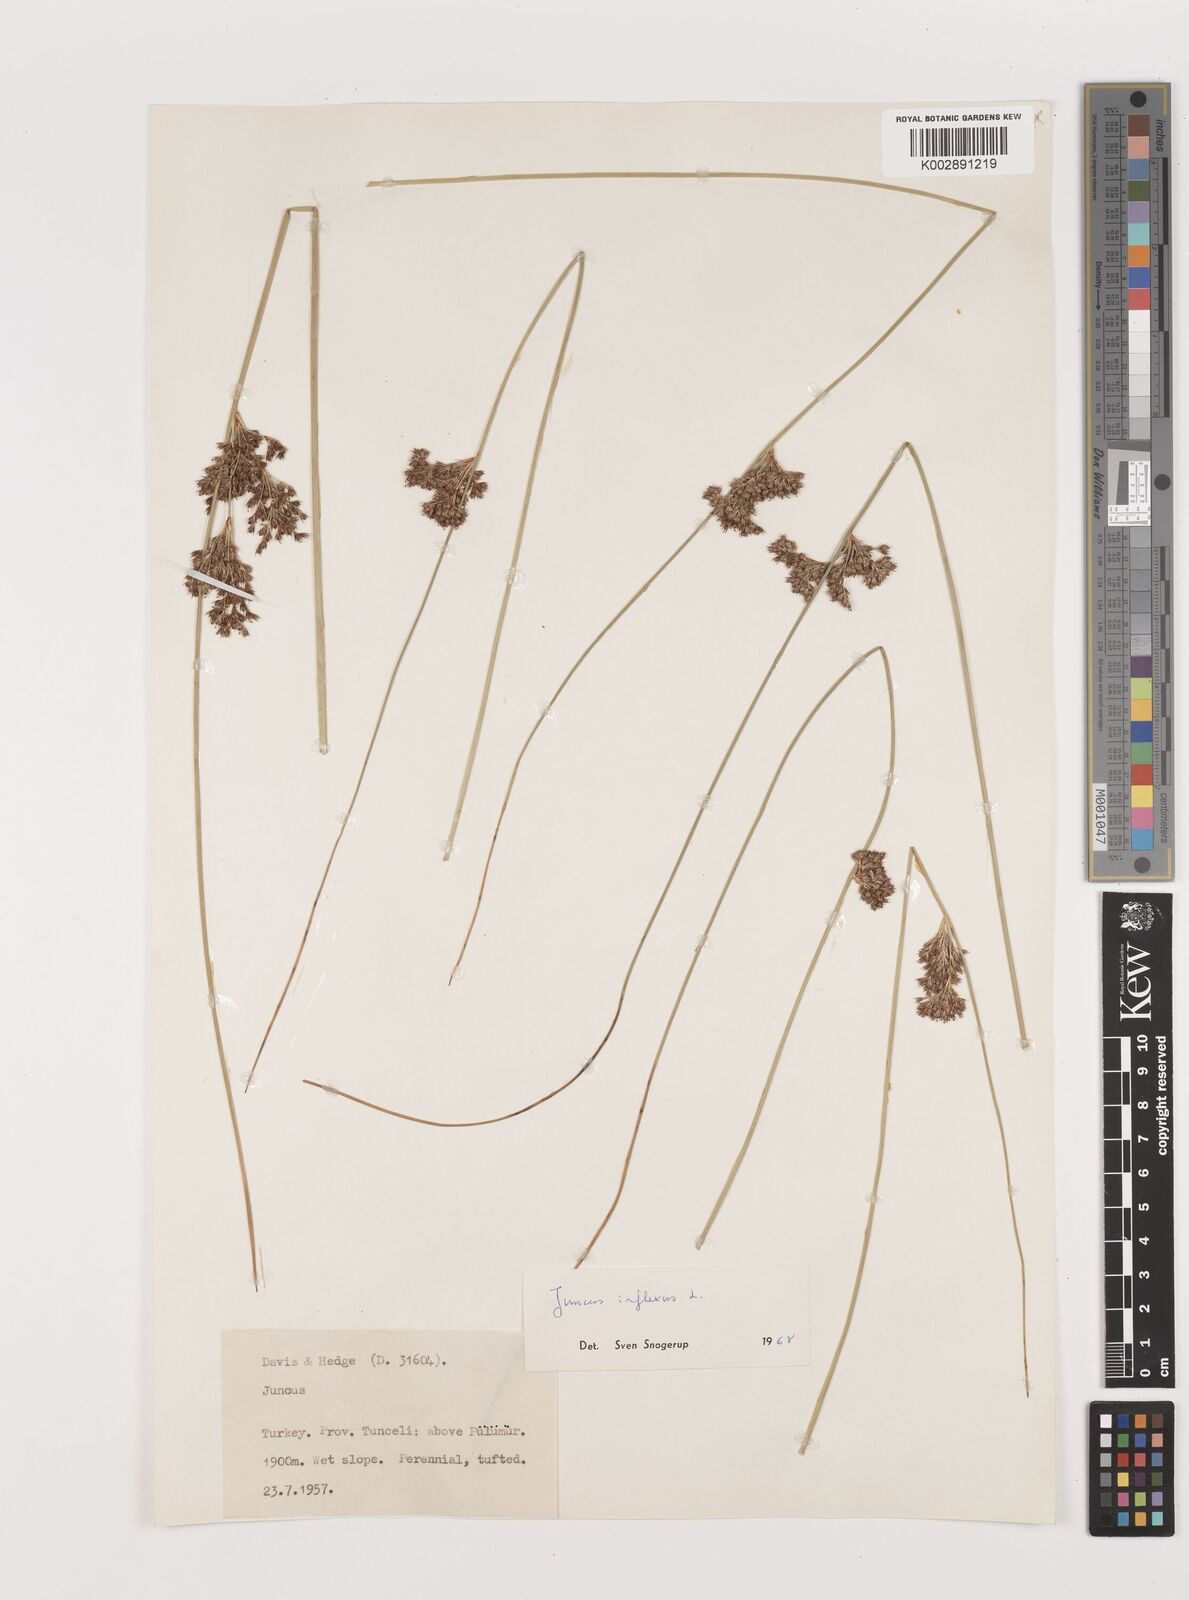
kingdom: Plantae
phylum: Tracheophyta
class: Liliopsida
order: Poales
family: Juncaceae
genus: Juncus
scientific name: Juncus inflexus
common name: Hard rush
